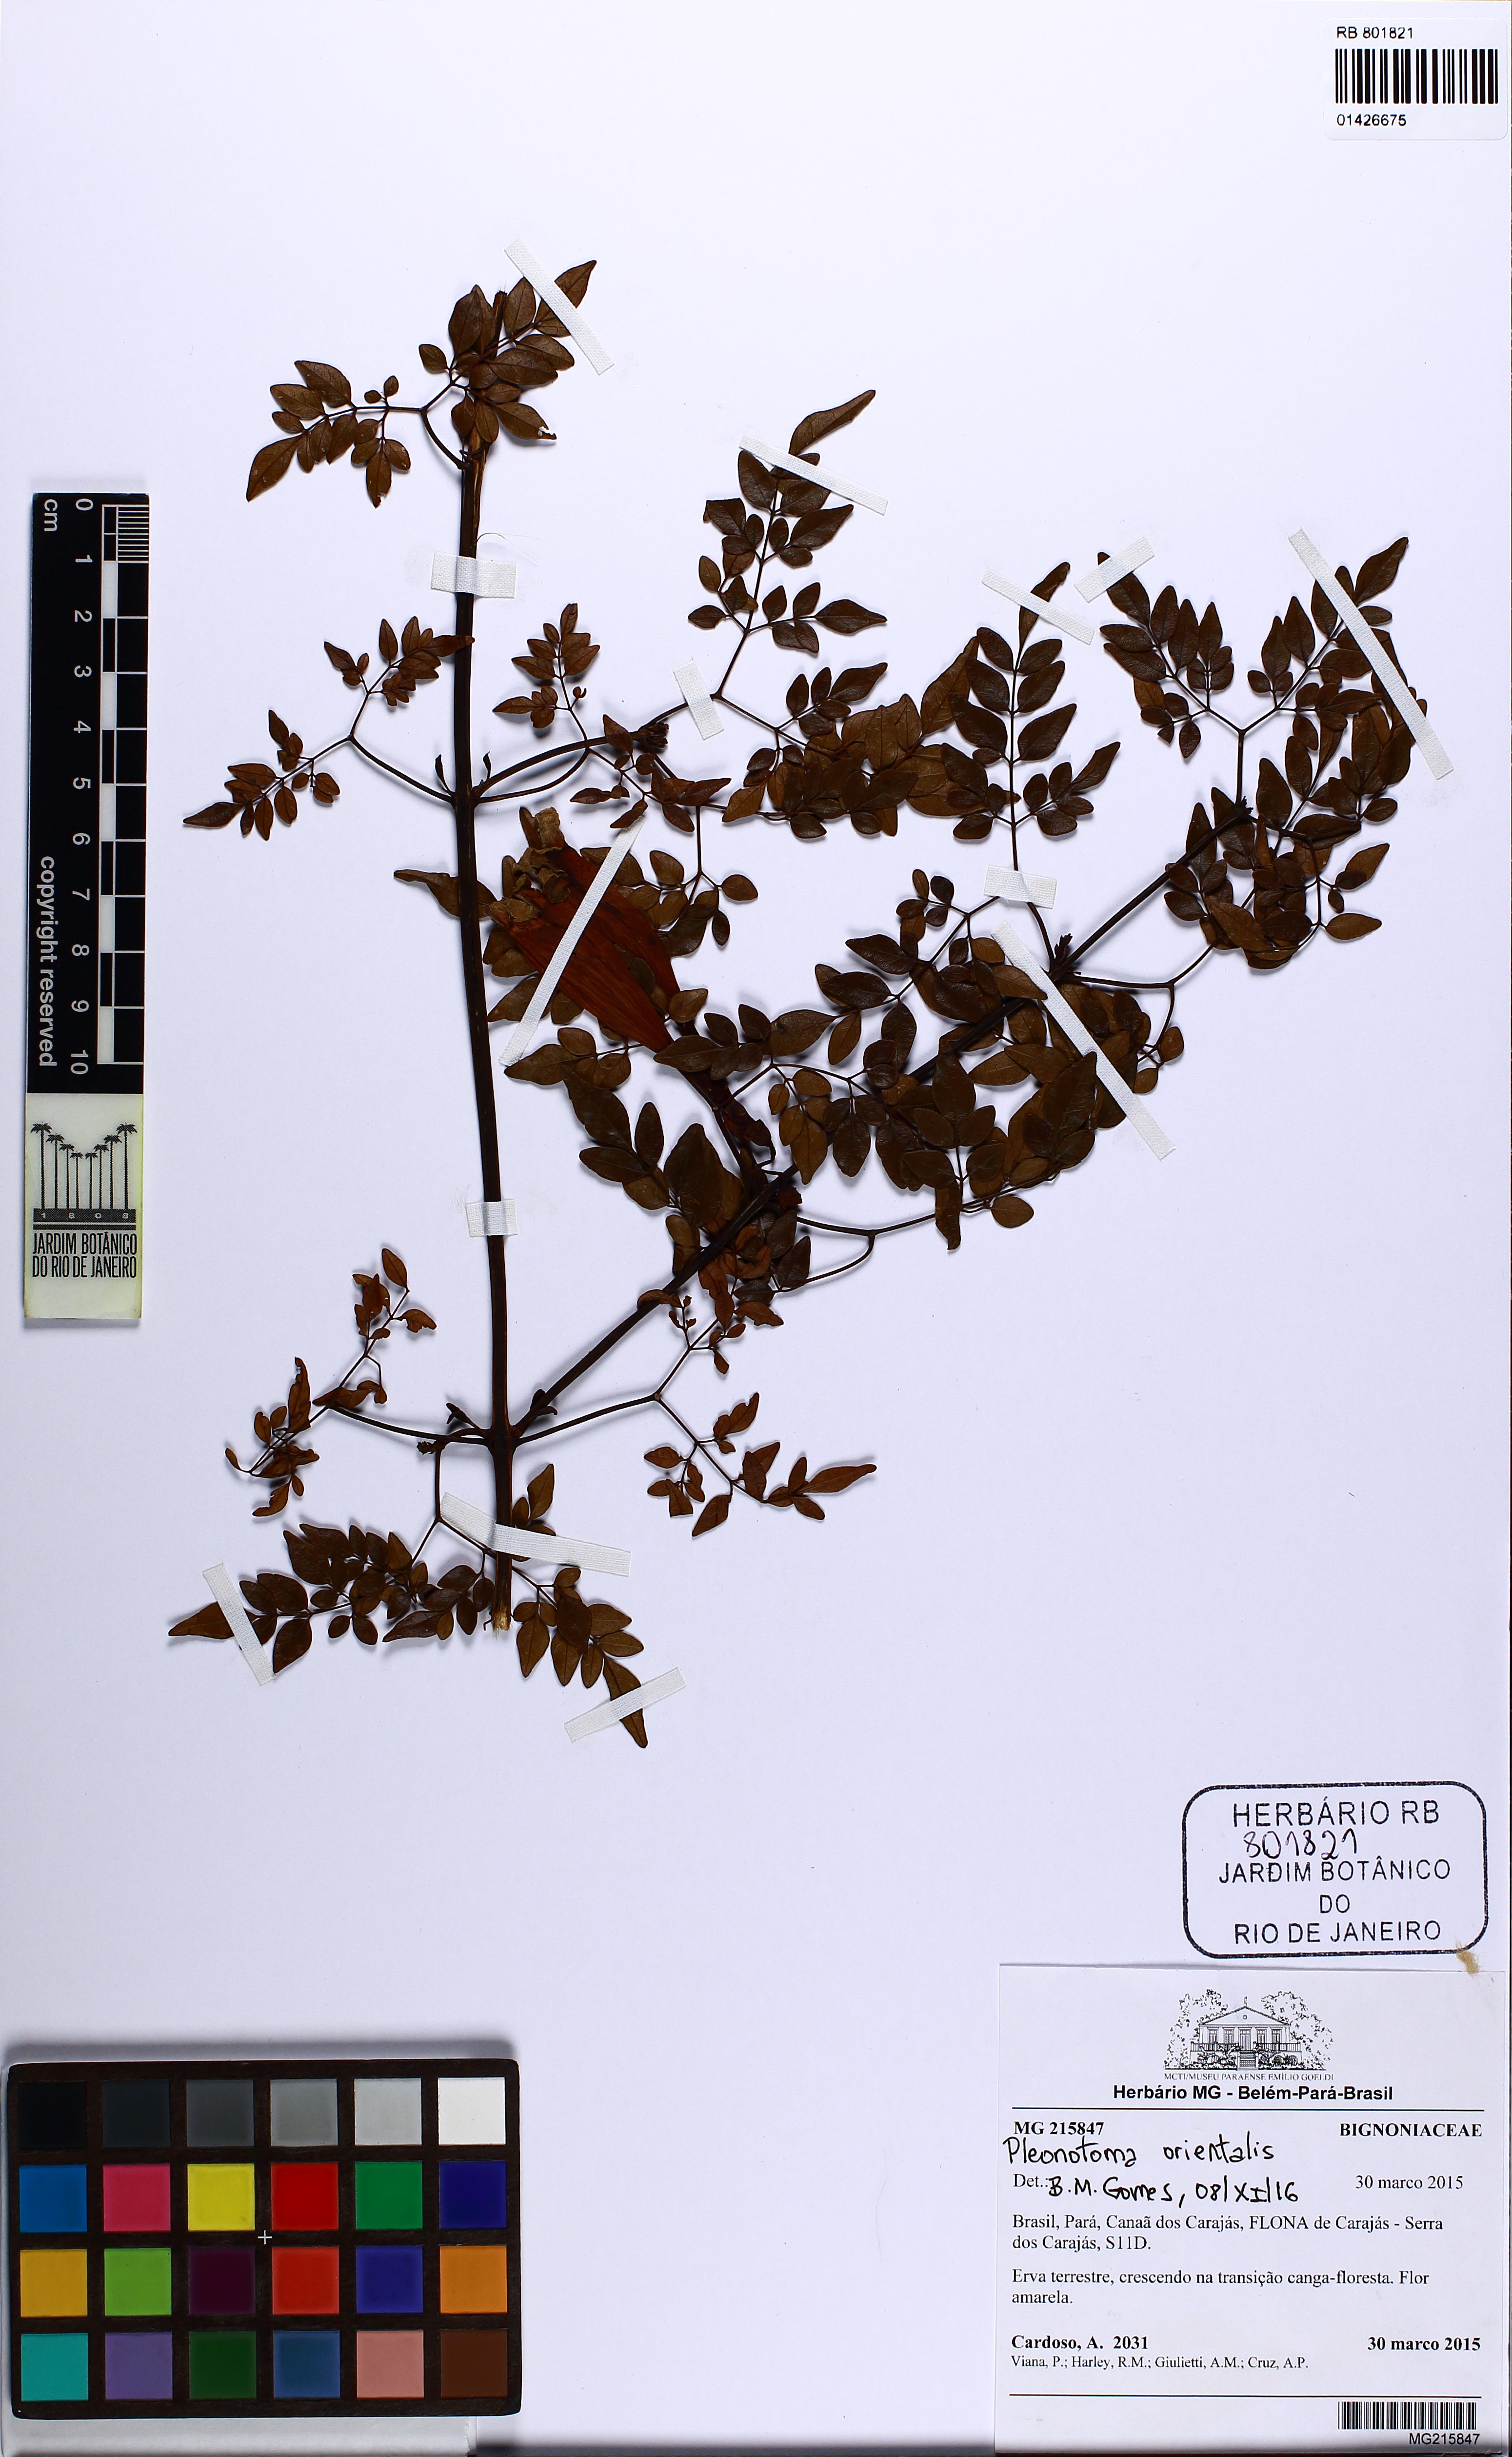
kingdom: Plantae
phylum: Tracheophyta
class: Magnoliopsida
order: Lamiales
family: Bignoniaceae
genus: Pleonotoma
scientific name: Pleonotoma orientalis
